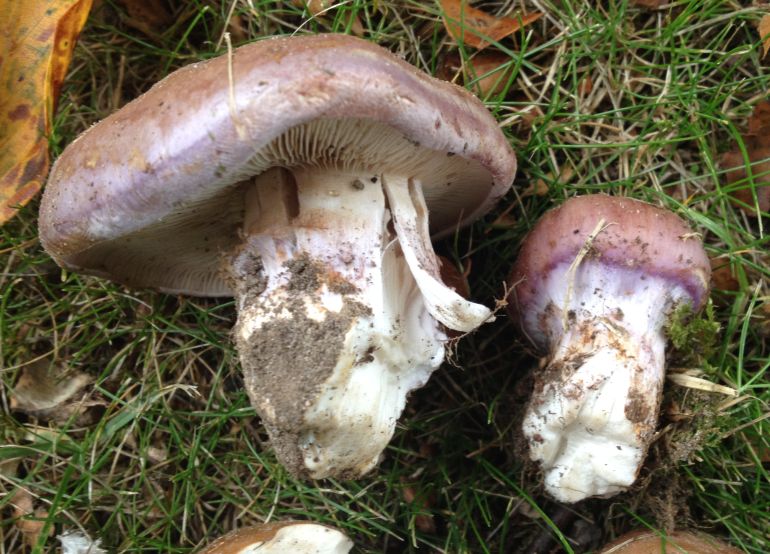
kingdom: Fungi
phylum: Basidiomycota
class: Agaricomycetes
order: Agaricales
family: Cortinariaceae
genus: Phlegmacium
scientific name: Phlegmacium balteatocumatile
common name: violettrådet slørhat
